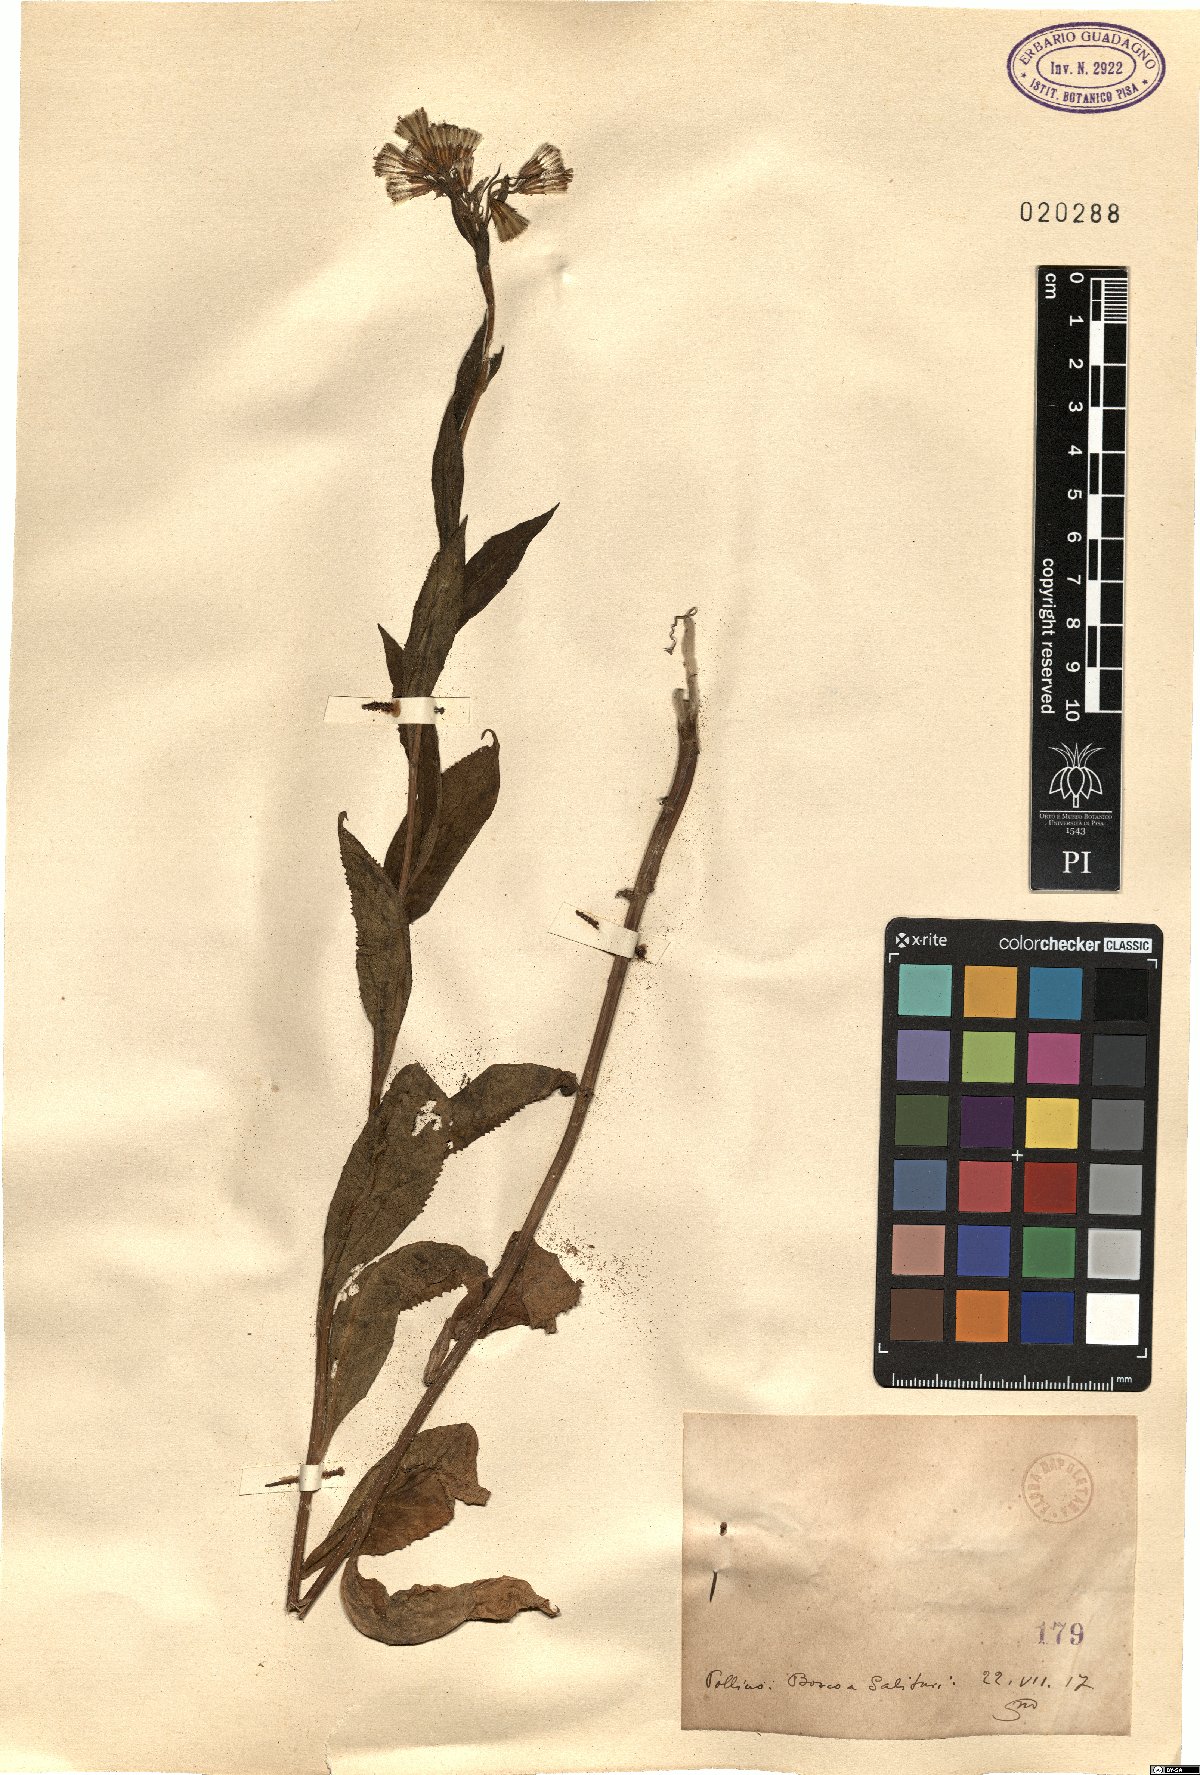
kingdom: Plantae
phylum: Tracheophyta
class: Magnoliopsida
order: Asterales
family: Asteraceae
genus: Senecio
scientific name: Senecio
